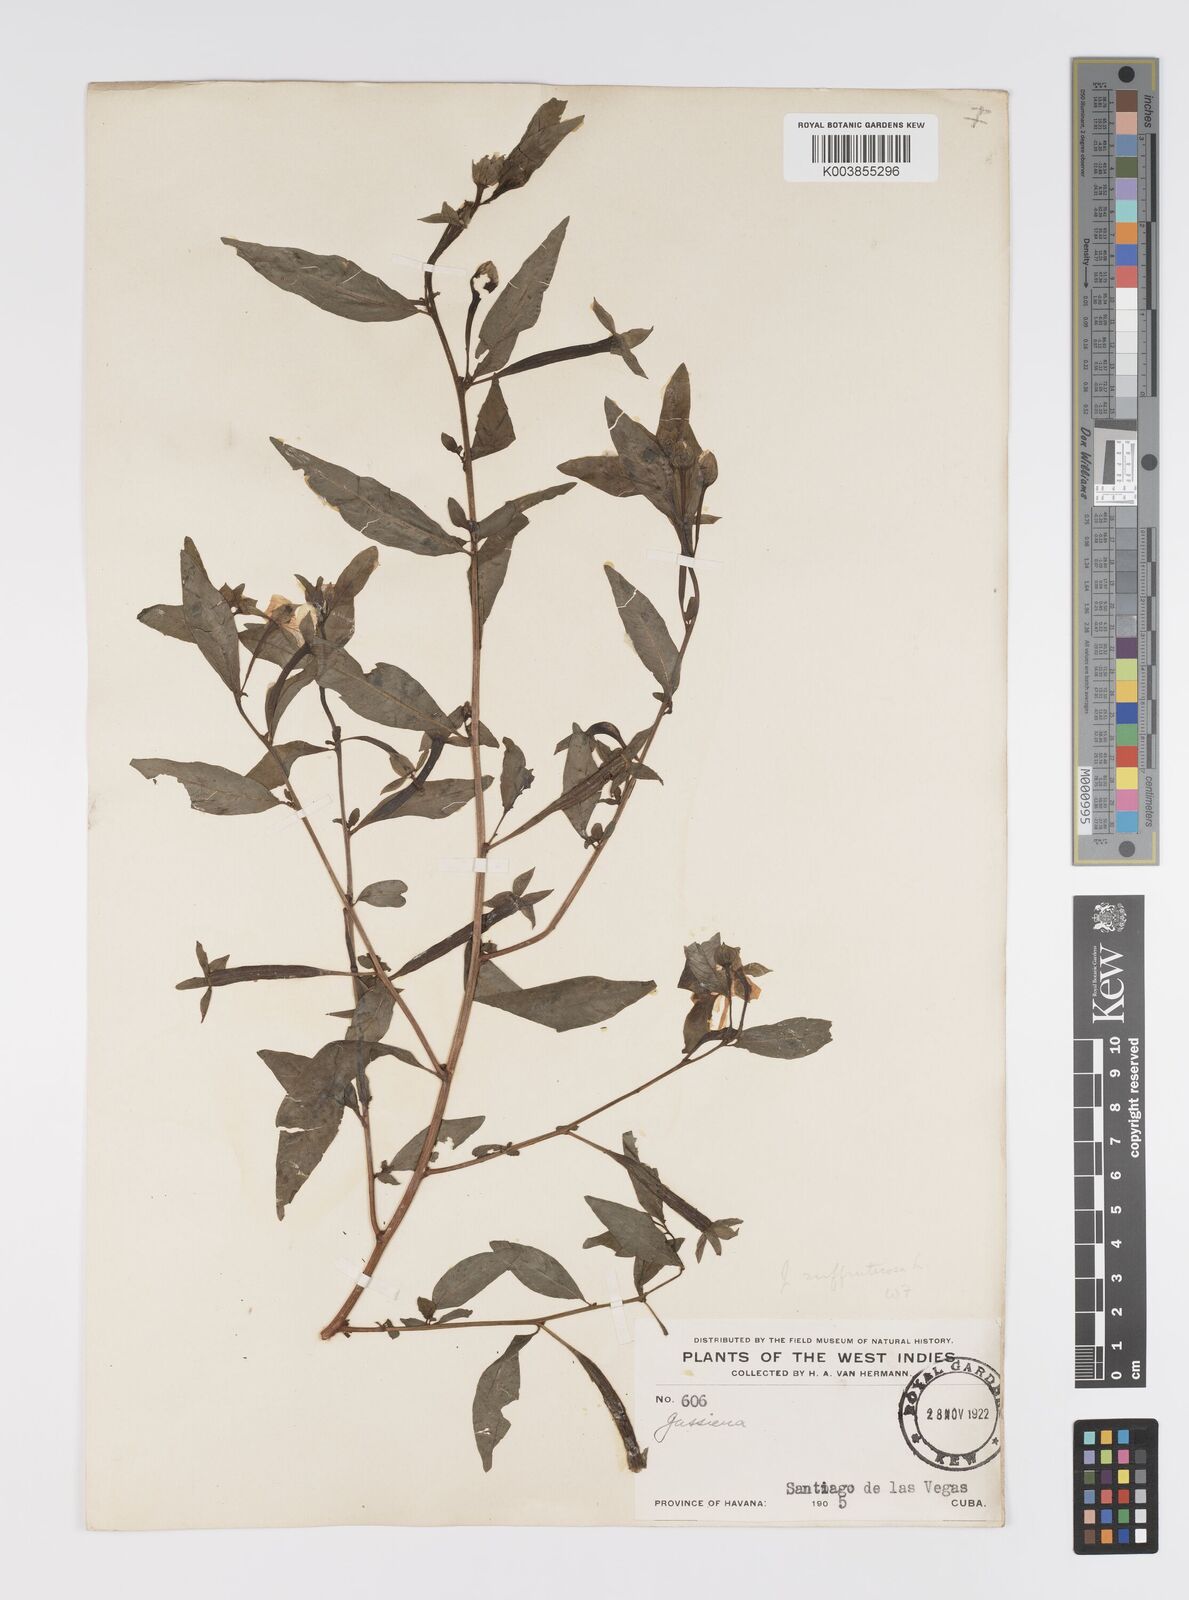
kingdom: Plantae
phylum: Tracheophyta
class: Magnoliopsida
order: Myrtales
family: Onagraceae
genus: Ludwigia
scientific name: Ludwigia octovalvis
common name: Water-primrose
